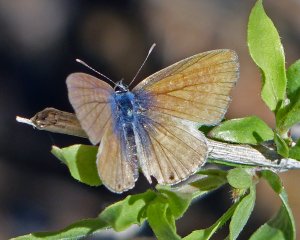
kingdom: Animalia
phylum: Arthropoda
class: Insecta
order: Lepidoptera
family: Lycaenidae
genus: Hemiargus
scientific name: Hemiargus ceraunus
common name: Ceraunus Blue
